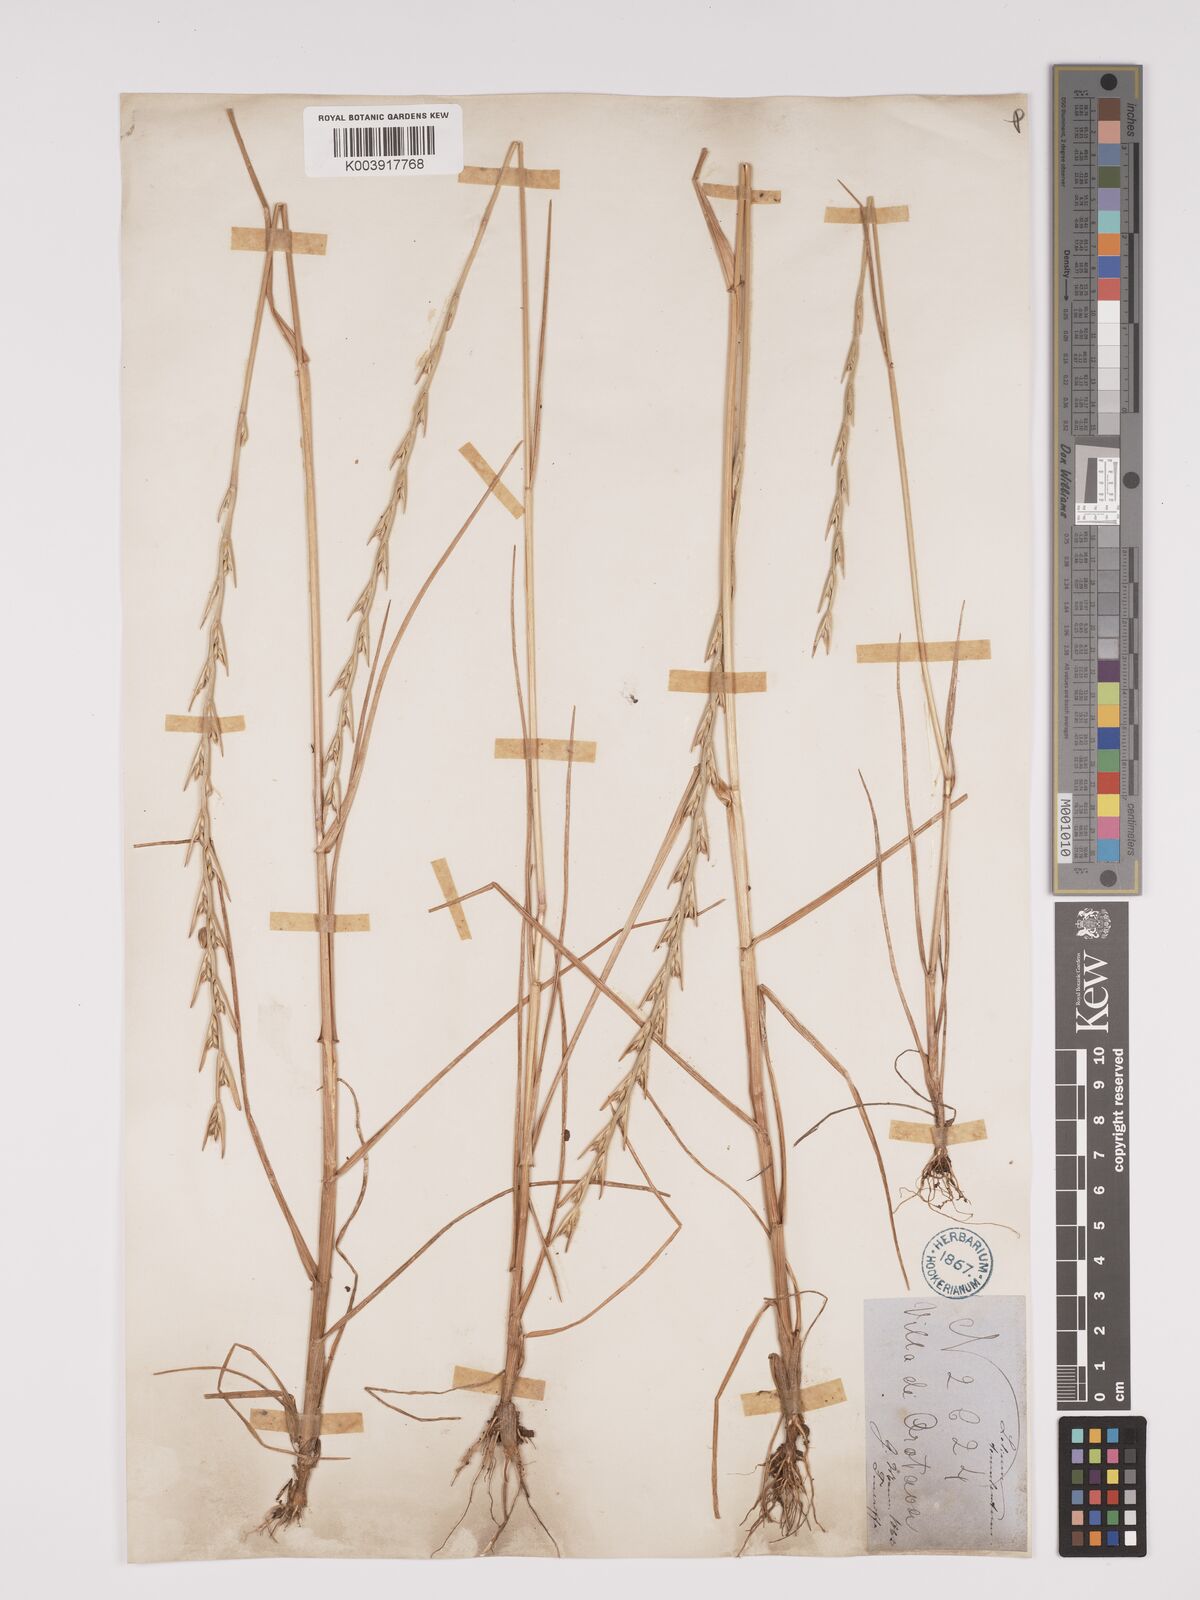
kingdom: Plantae
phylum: Tracheophyta
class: Liliopsida
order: Poales
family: Poaceae
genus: Lolium
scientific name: Lolium temulentum
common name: Darnel
